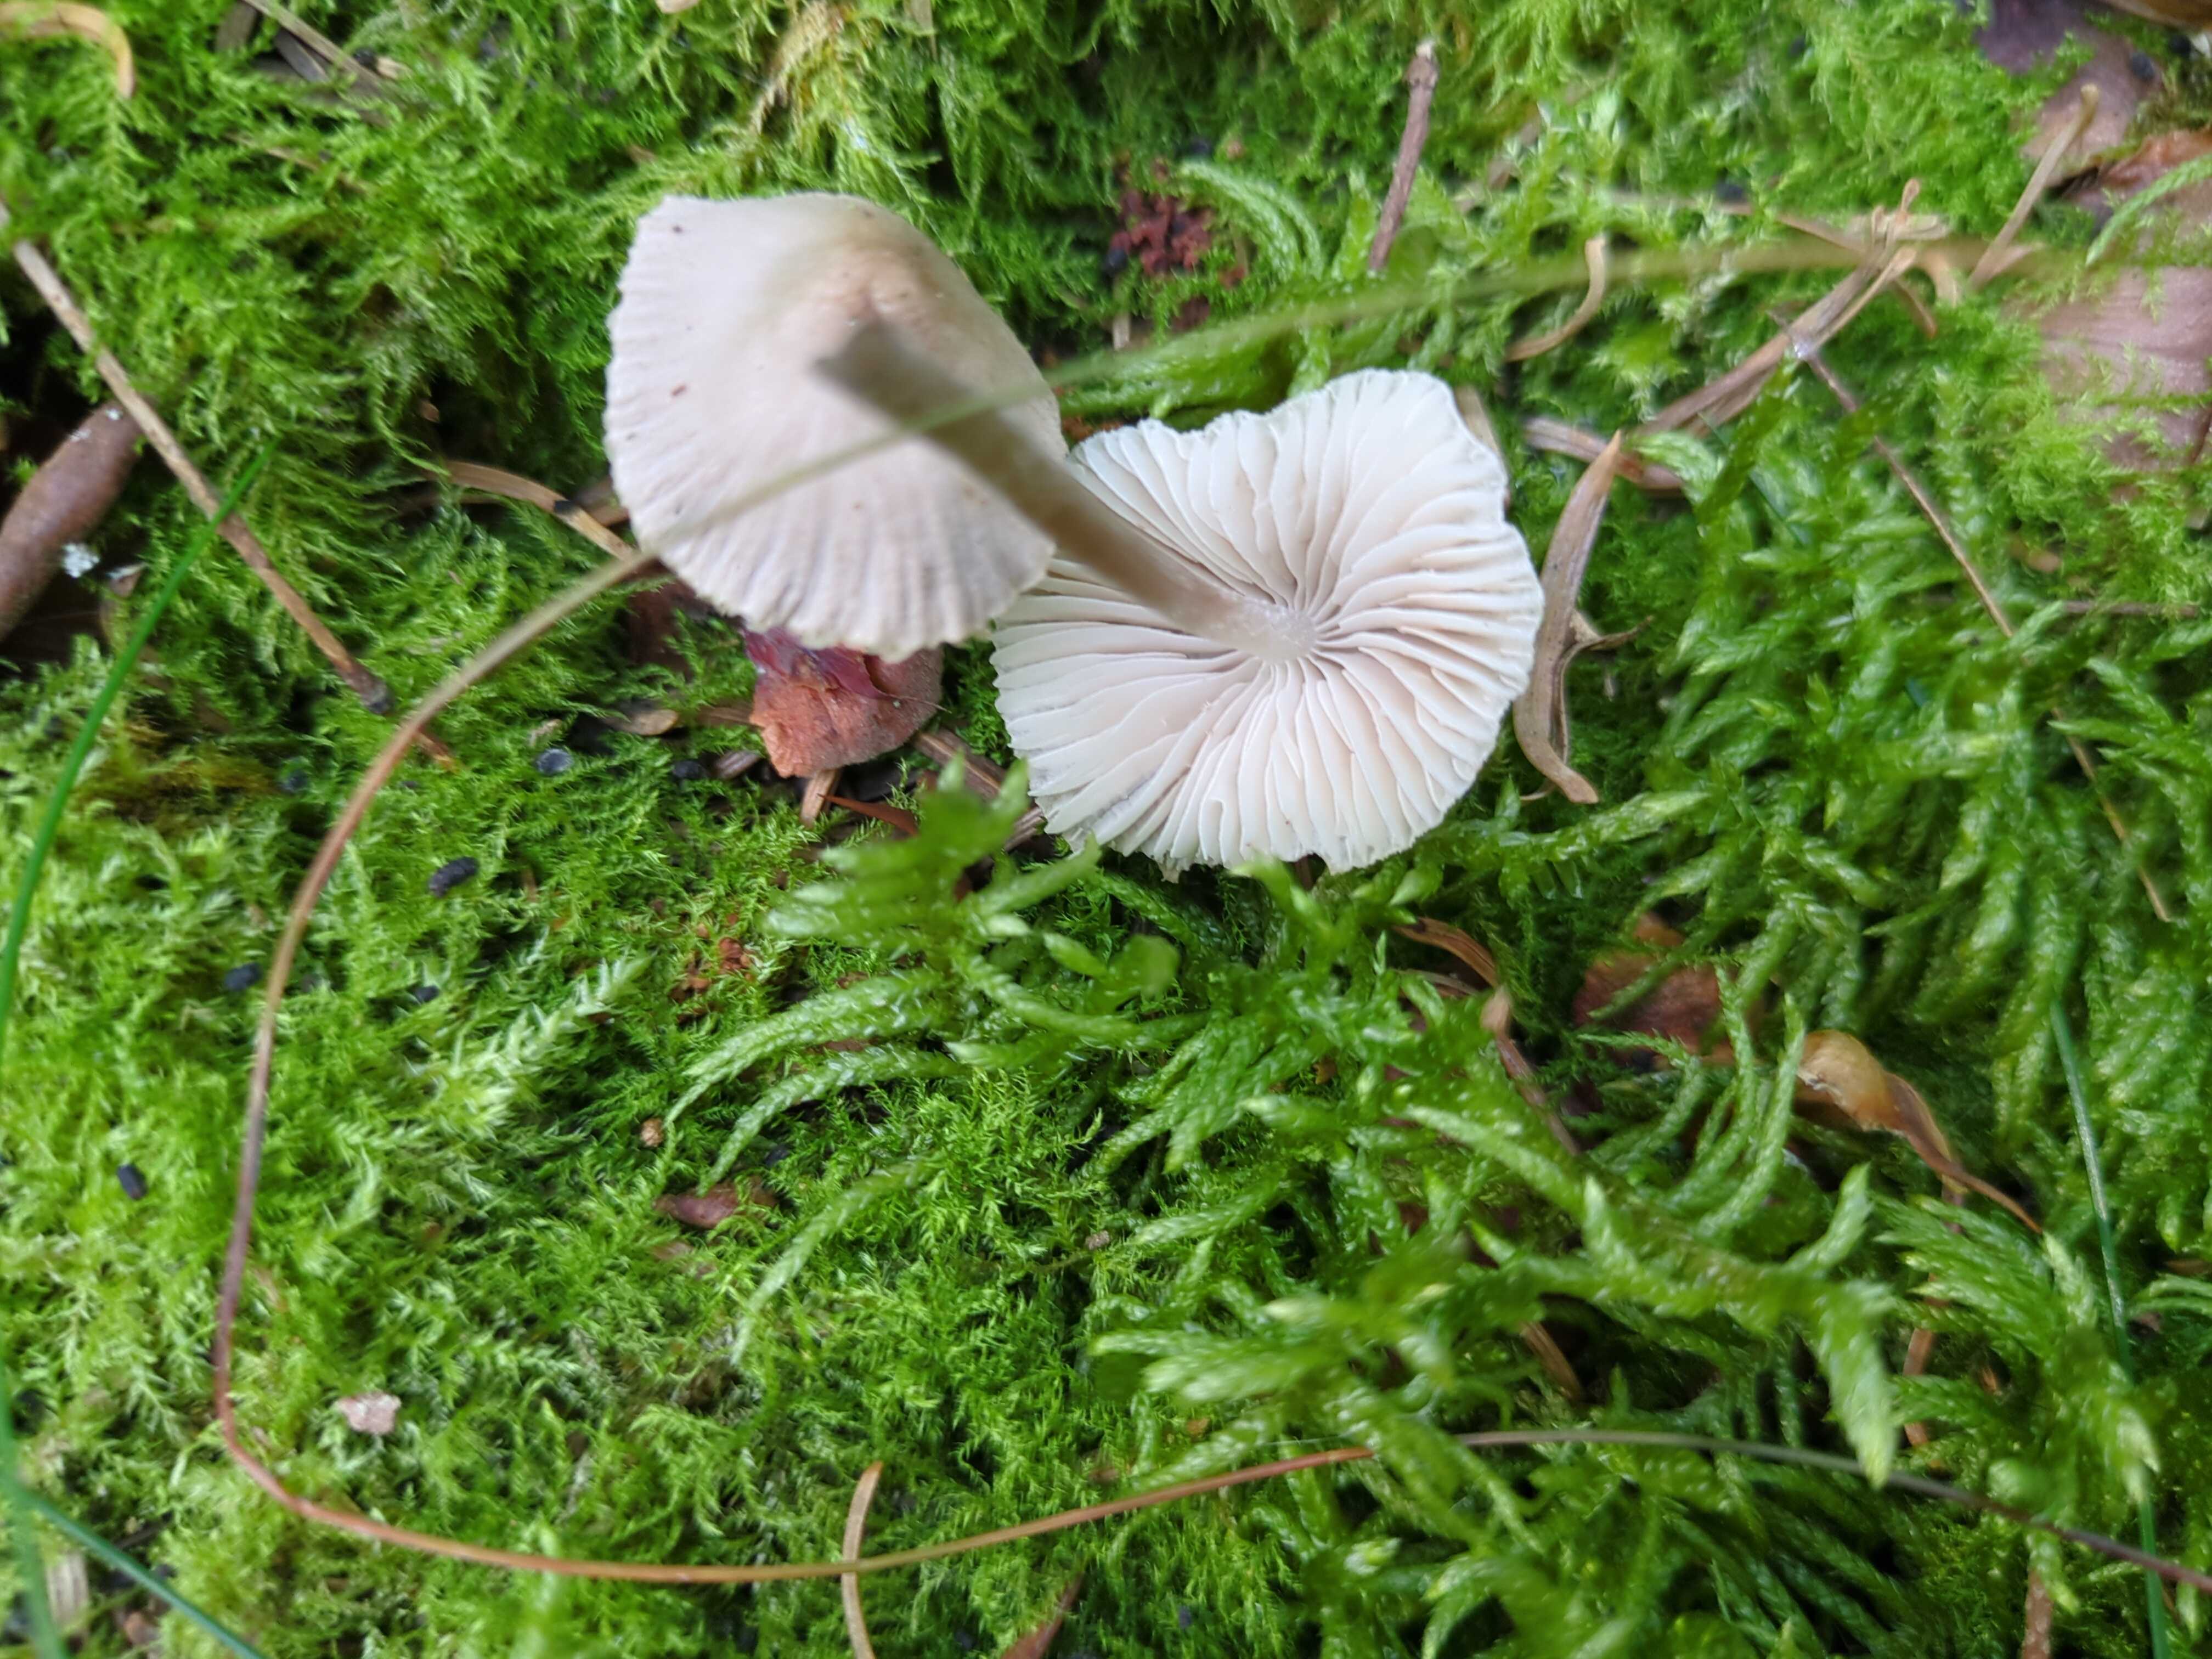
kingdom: Fungi
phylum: Basidiomycota
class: Agaricomycetes
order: Agaricales
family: Mycenaceae
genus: Mycena
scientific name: Mycena zephirus
